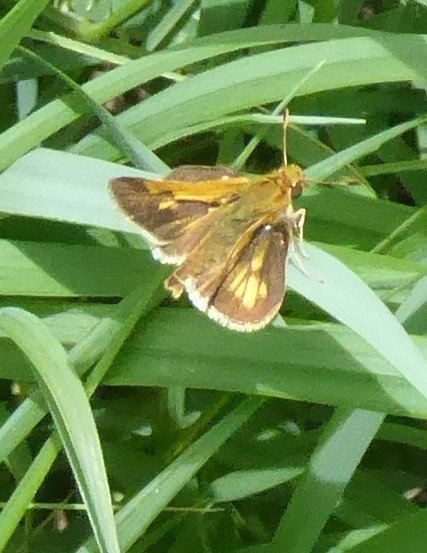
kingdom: Animalia
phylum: Arthropoda
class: Insecta
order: Lepidoptera
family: Hesperiidae
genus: Polites
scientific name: Polites themistocles
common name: Tawny-edged Skipper
